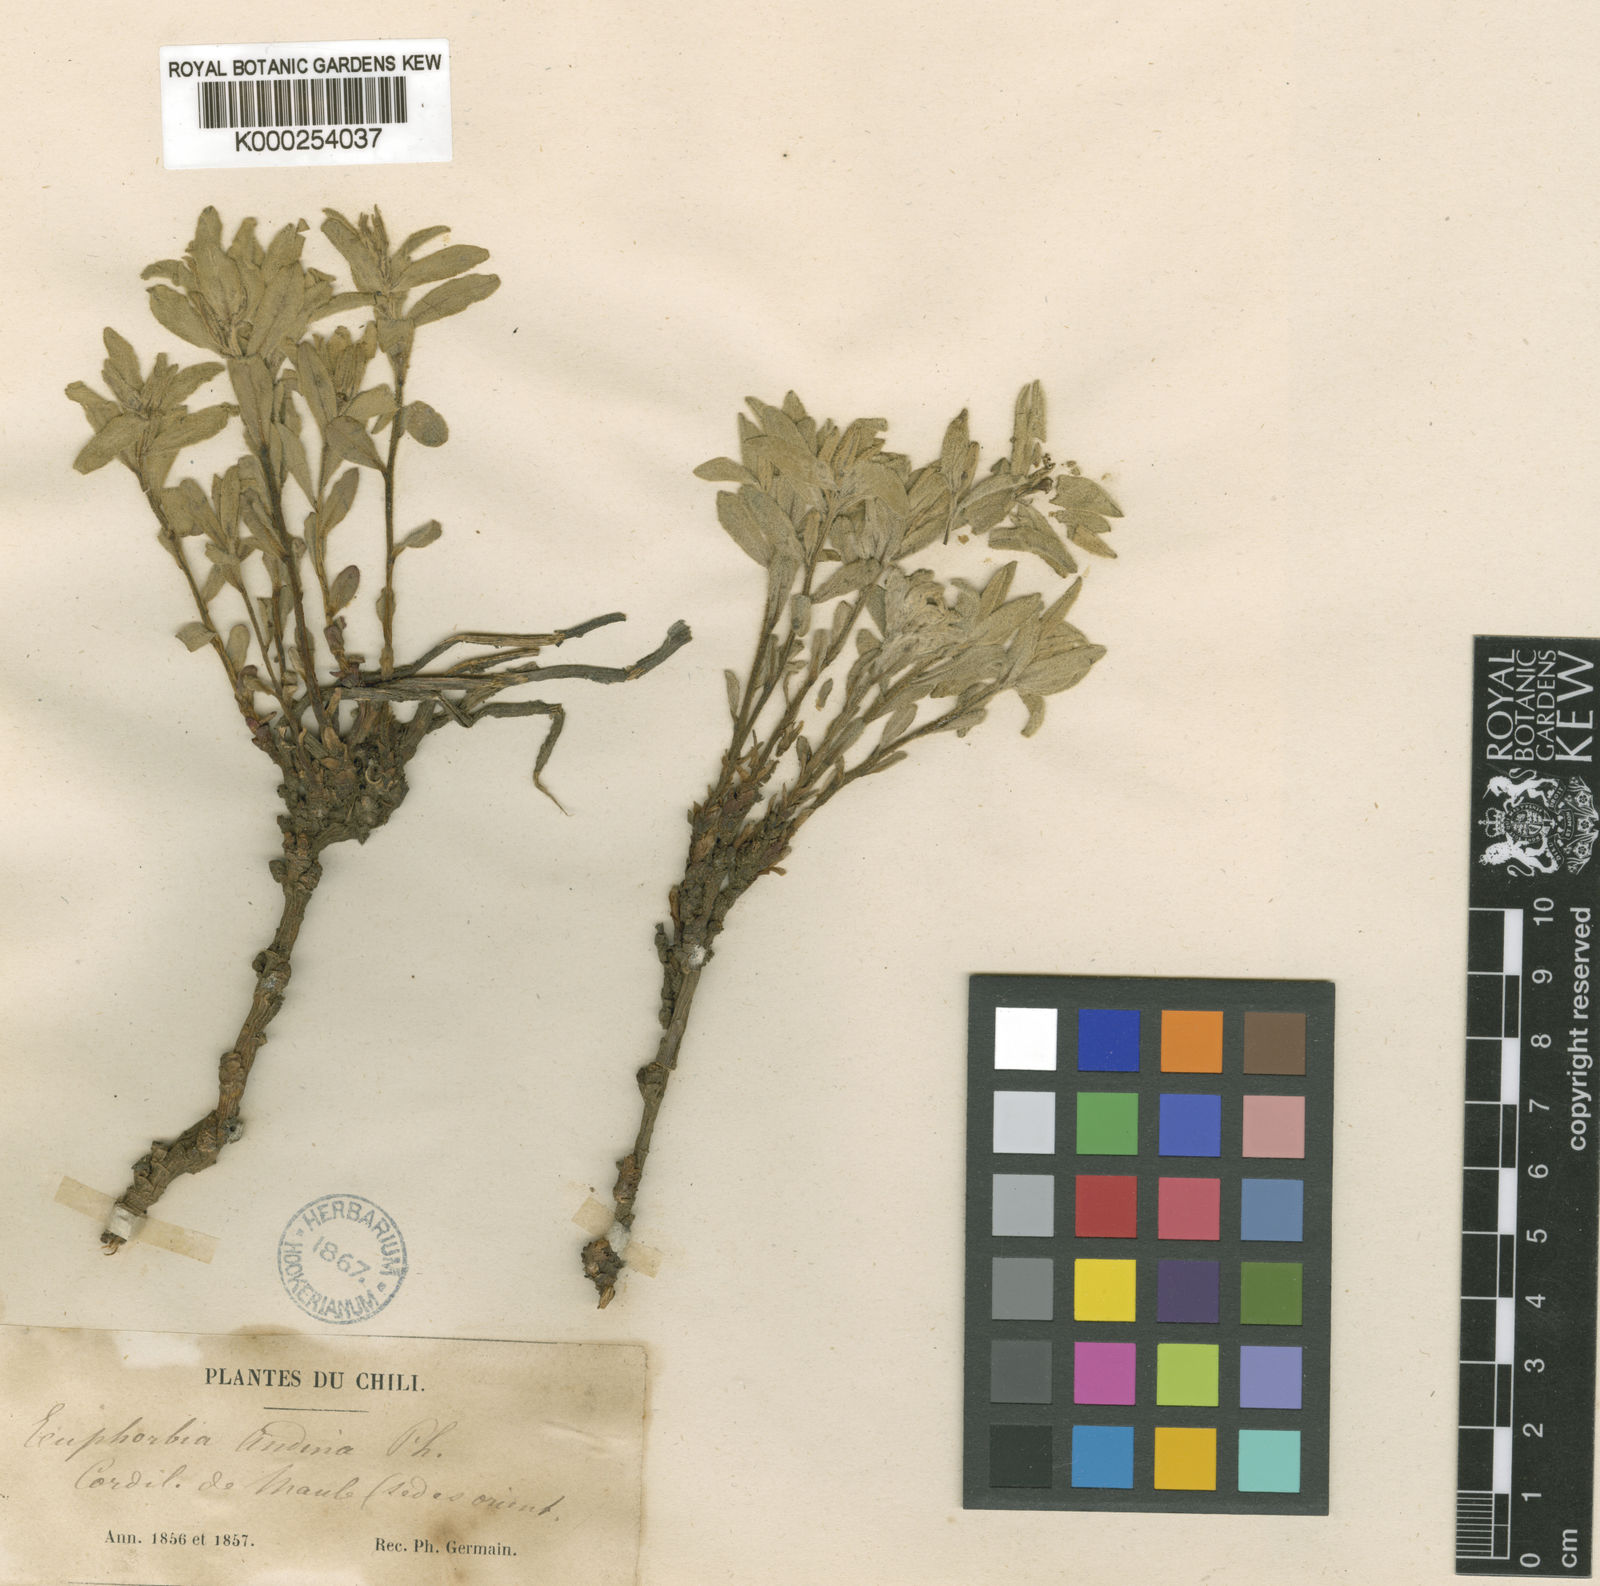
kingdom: Plantae
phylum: Tracheophyta
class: Magnoliopsida
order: Malpighiales
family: Euphorbiaceae
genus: Euphorbia
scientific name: Euphorbia collina
